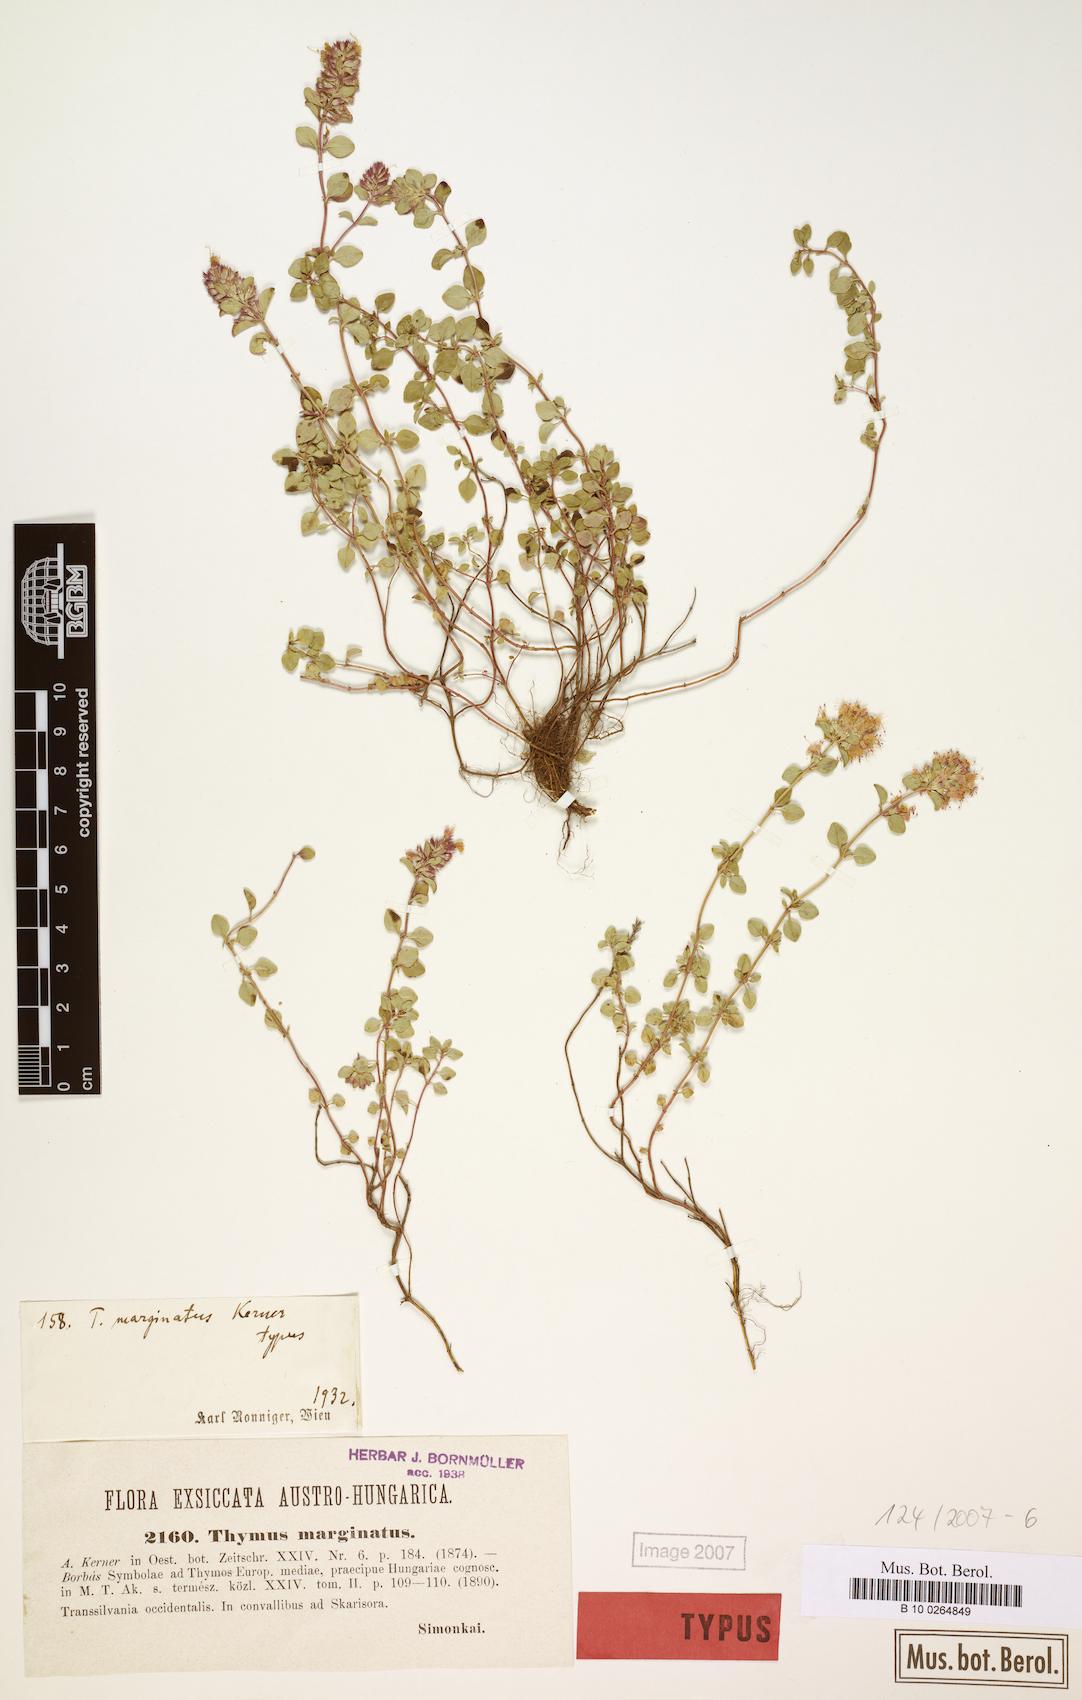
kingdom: Plantae
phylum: Tracheophyta
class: Magnoliopsida
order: Lamiales
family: Lamiaceae
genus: Micromeria
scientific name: Micromeria marginata
